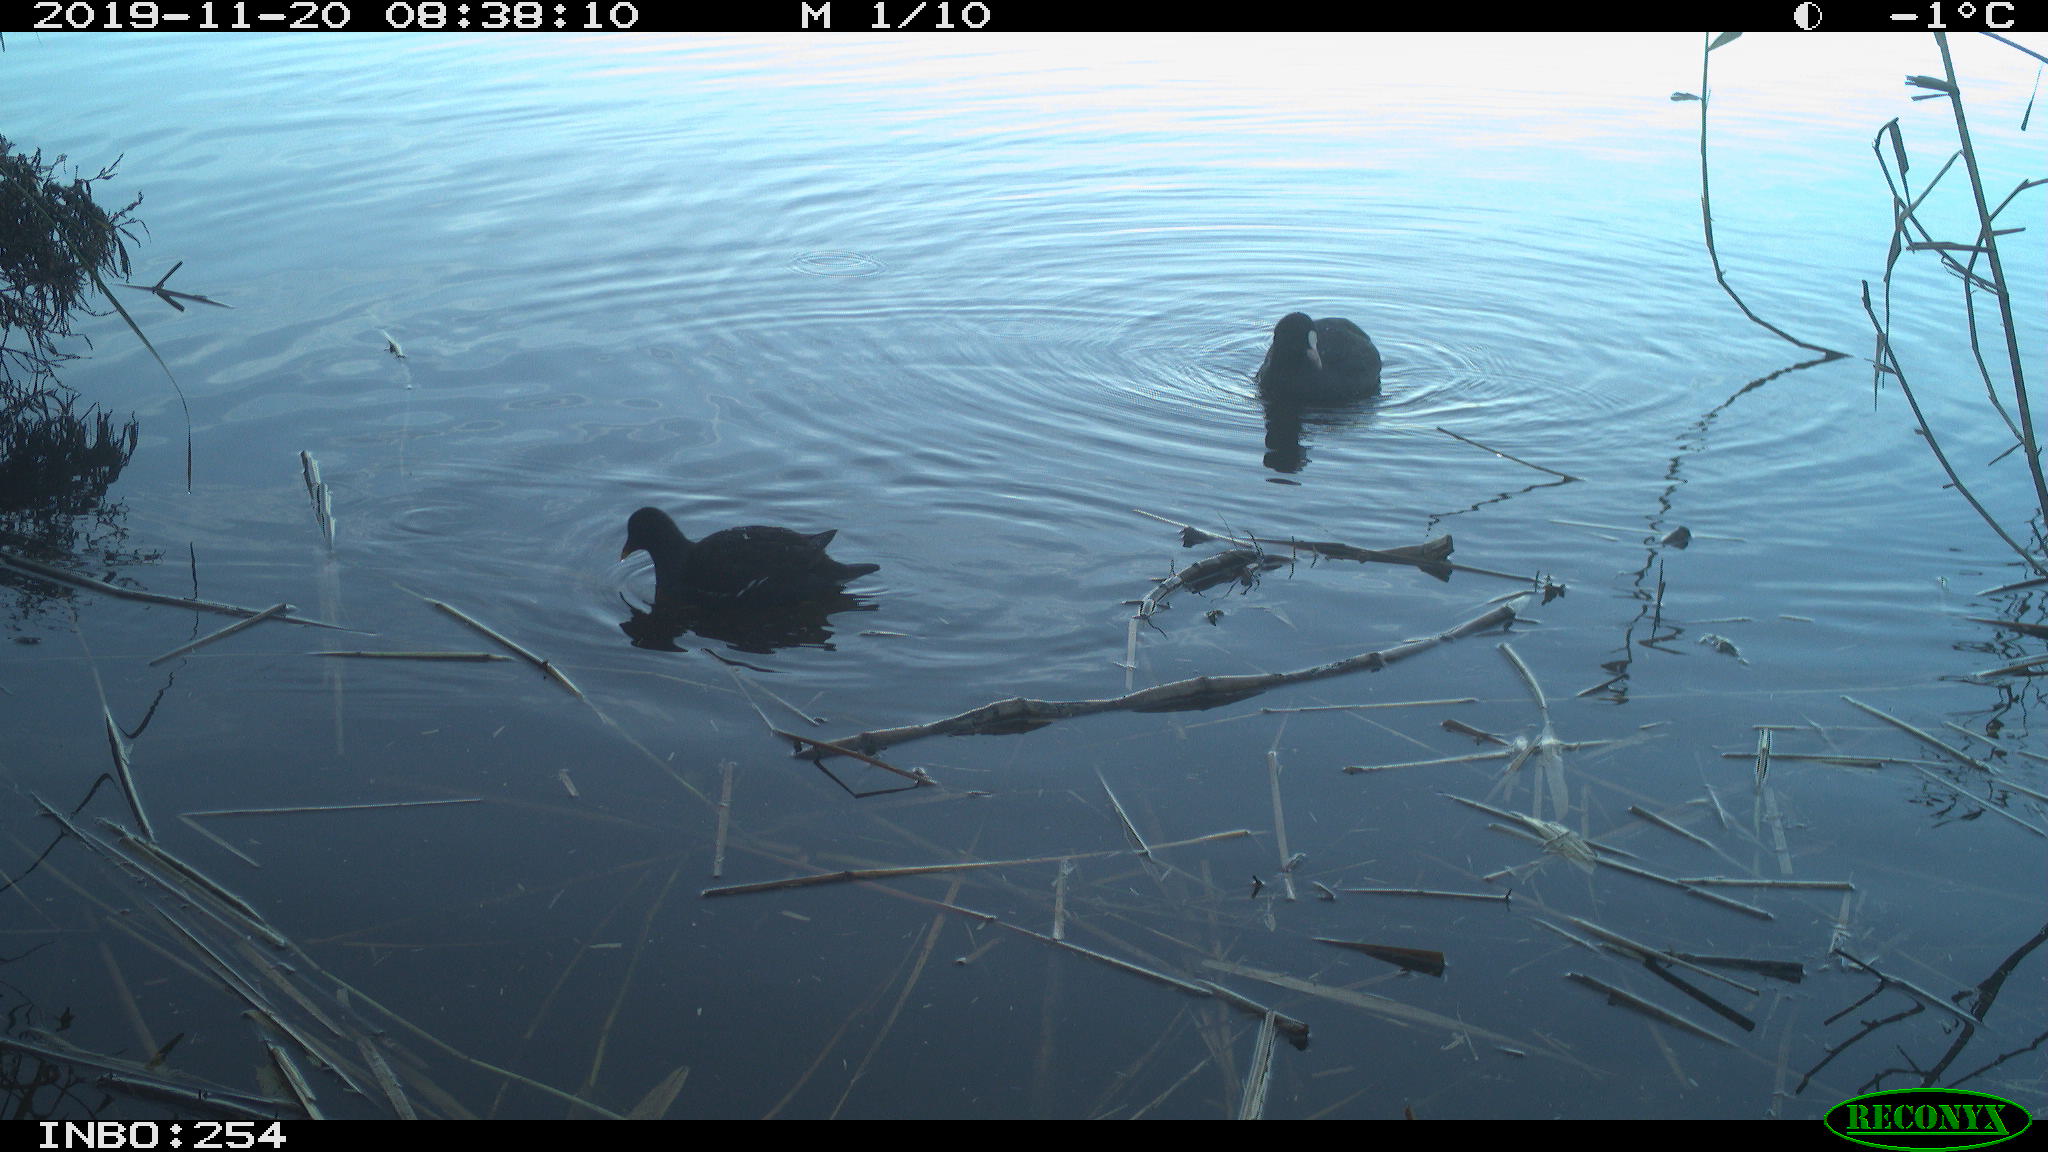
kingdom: Animalia
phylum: Chordata
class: Aves
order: Gruiformes
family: Rallidae
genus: Fulica
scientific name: Fulica atra
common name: Eurasian coot
